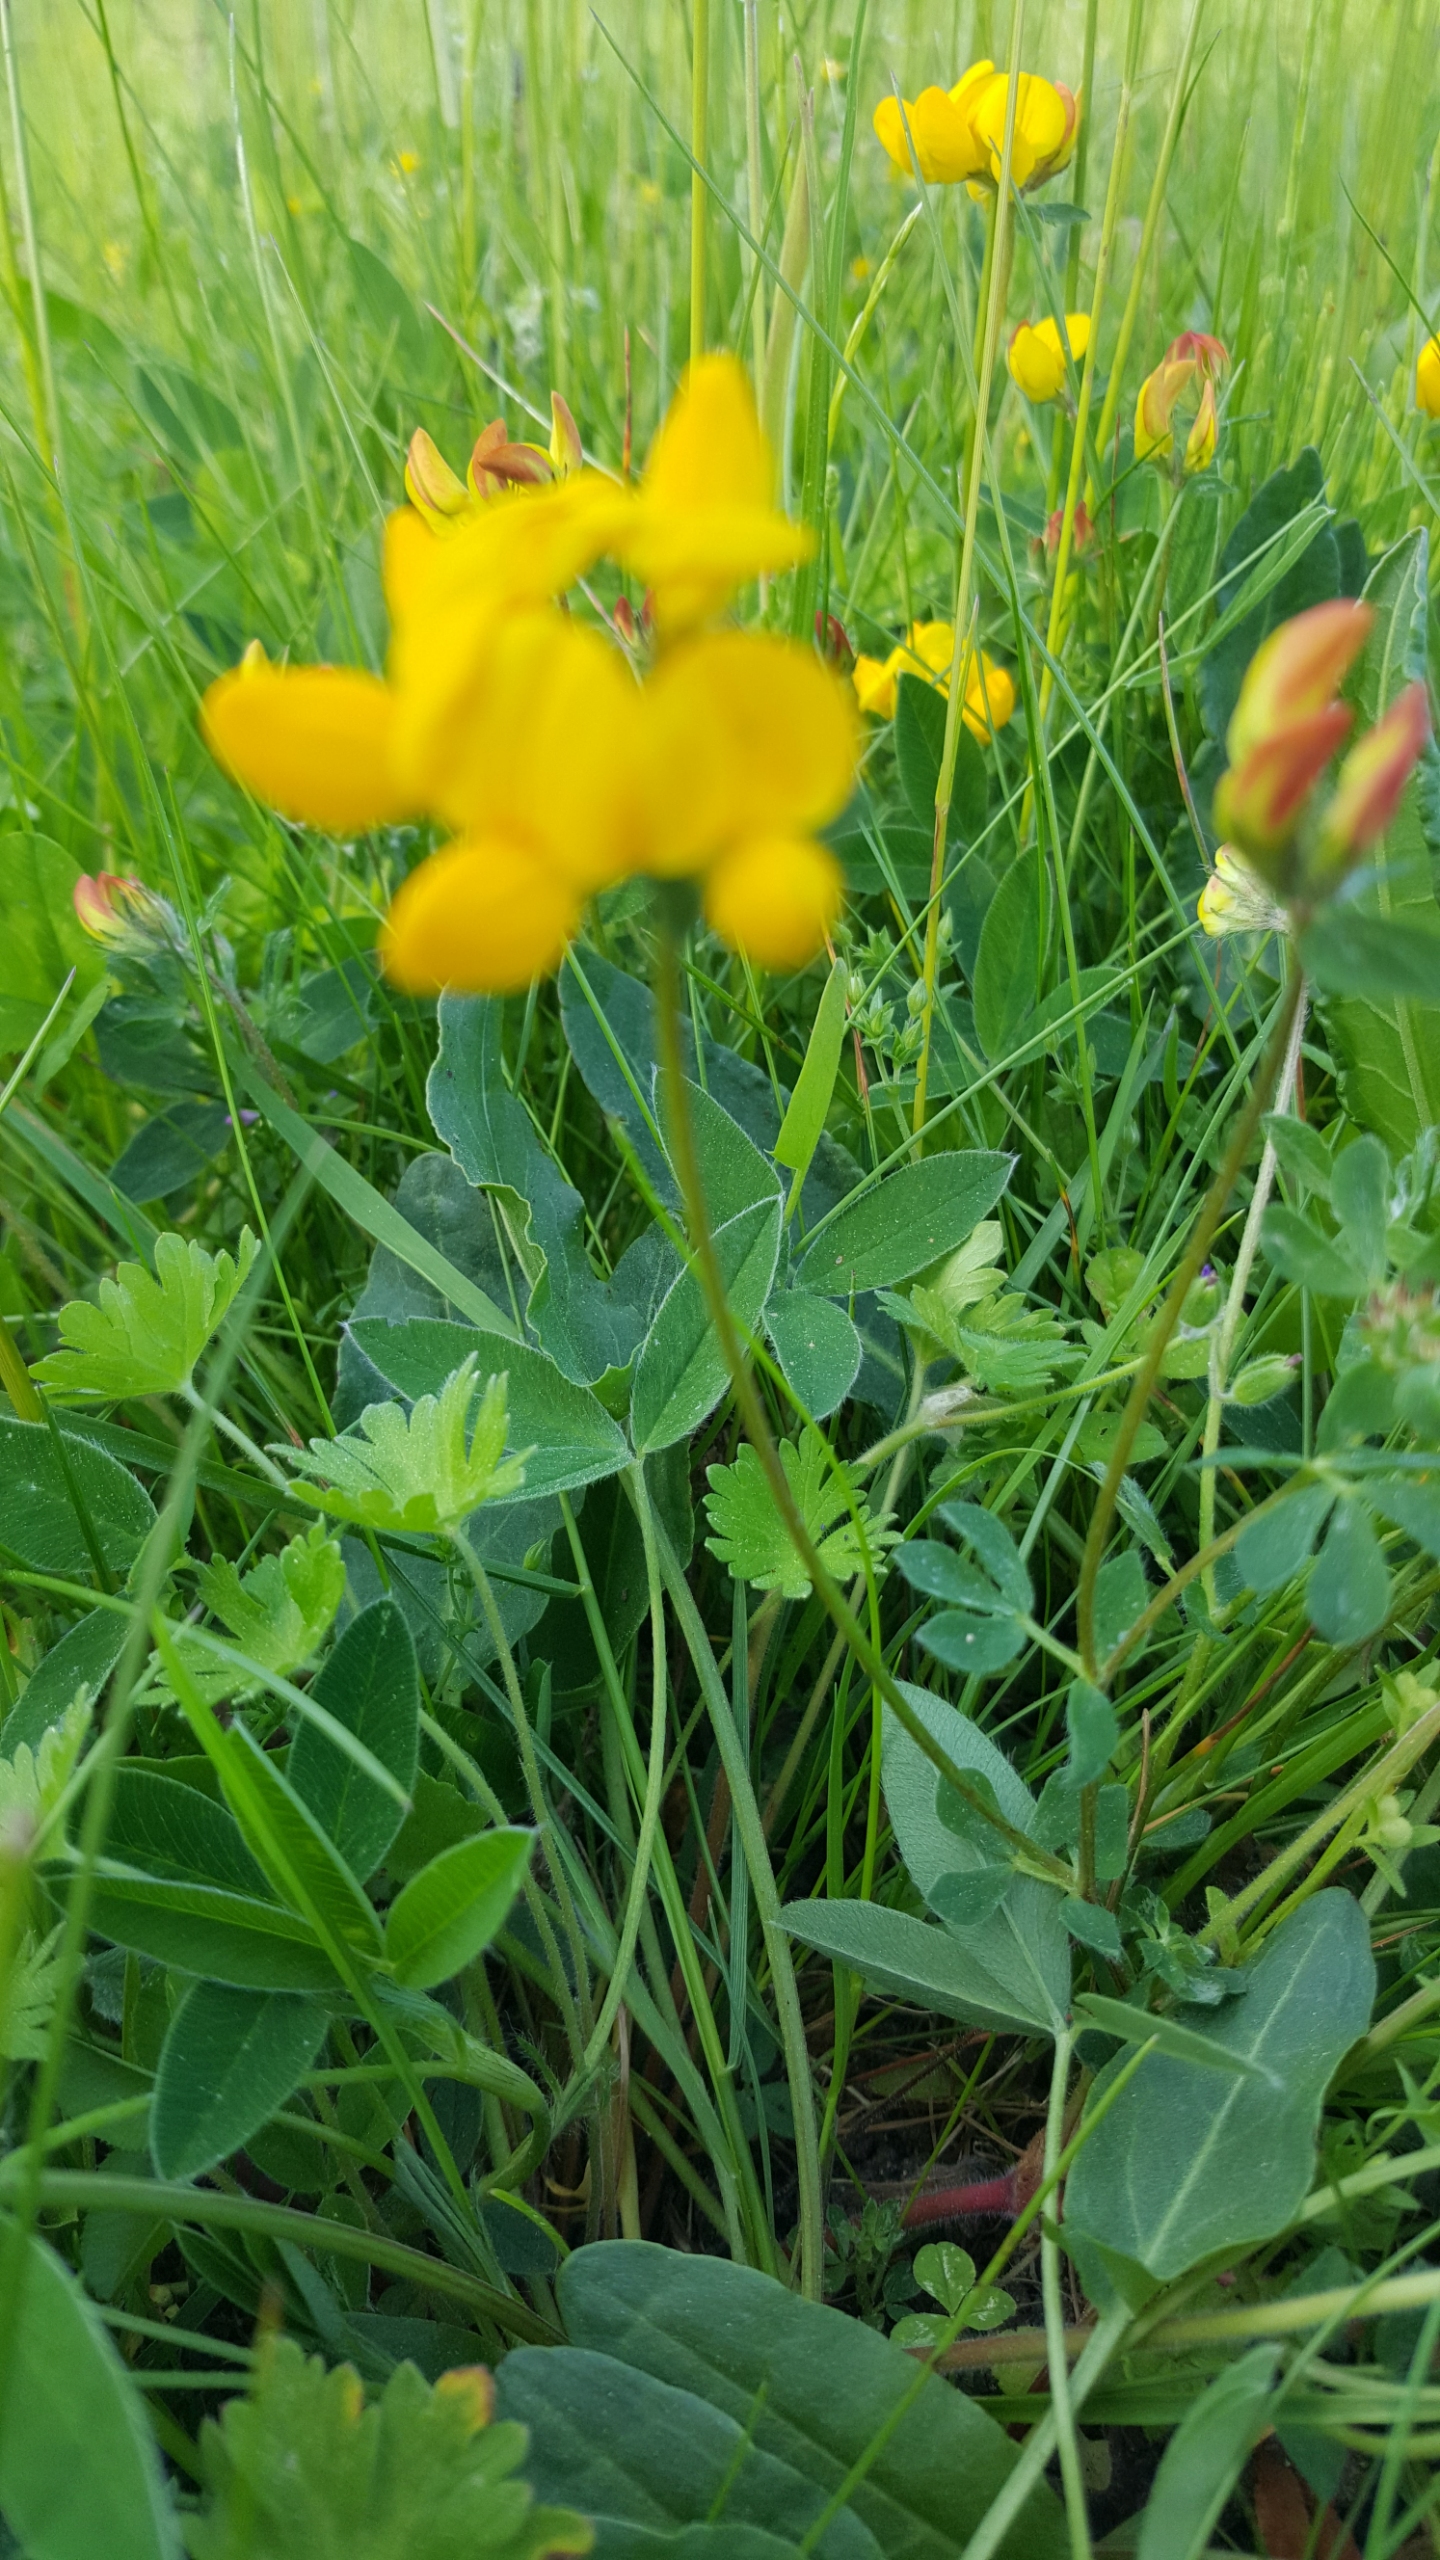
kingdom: Plantae
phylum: Tracheophyta
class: Magnoliopsida
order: Fabales
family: Fabaceae
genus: Lotus
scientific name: Lotus corniculatus
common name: Almindelig kællingetand
